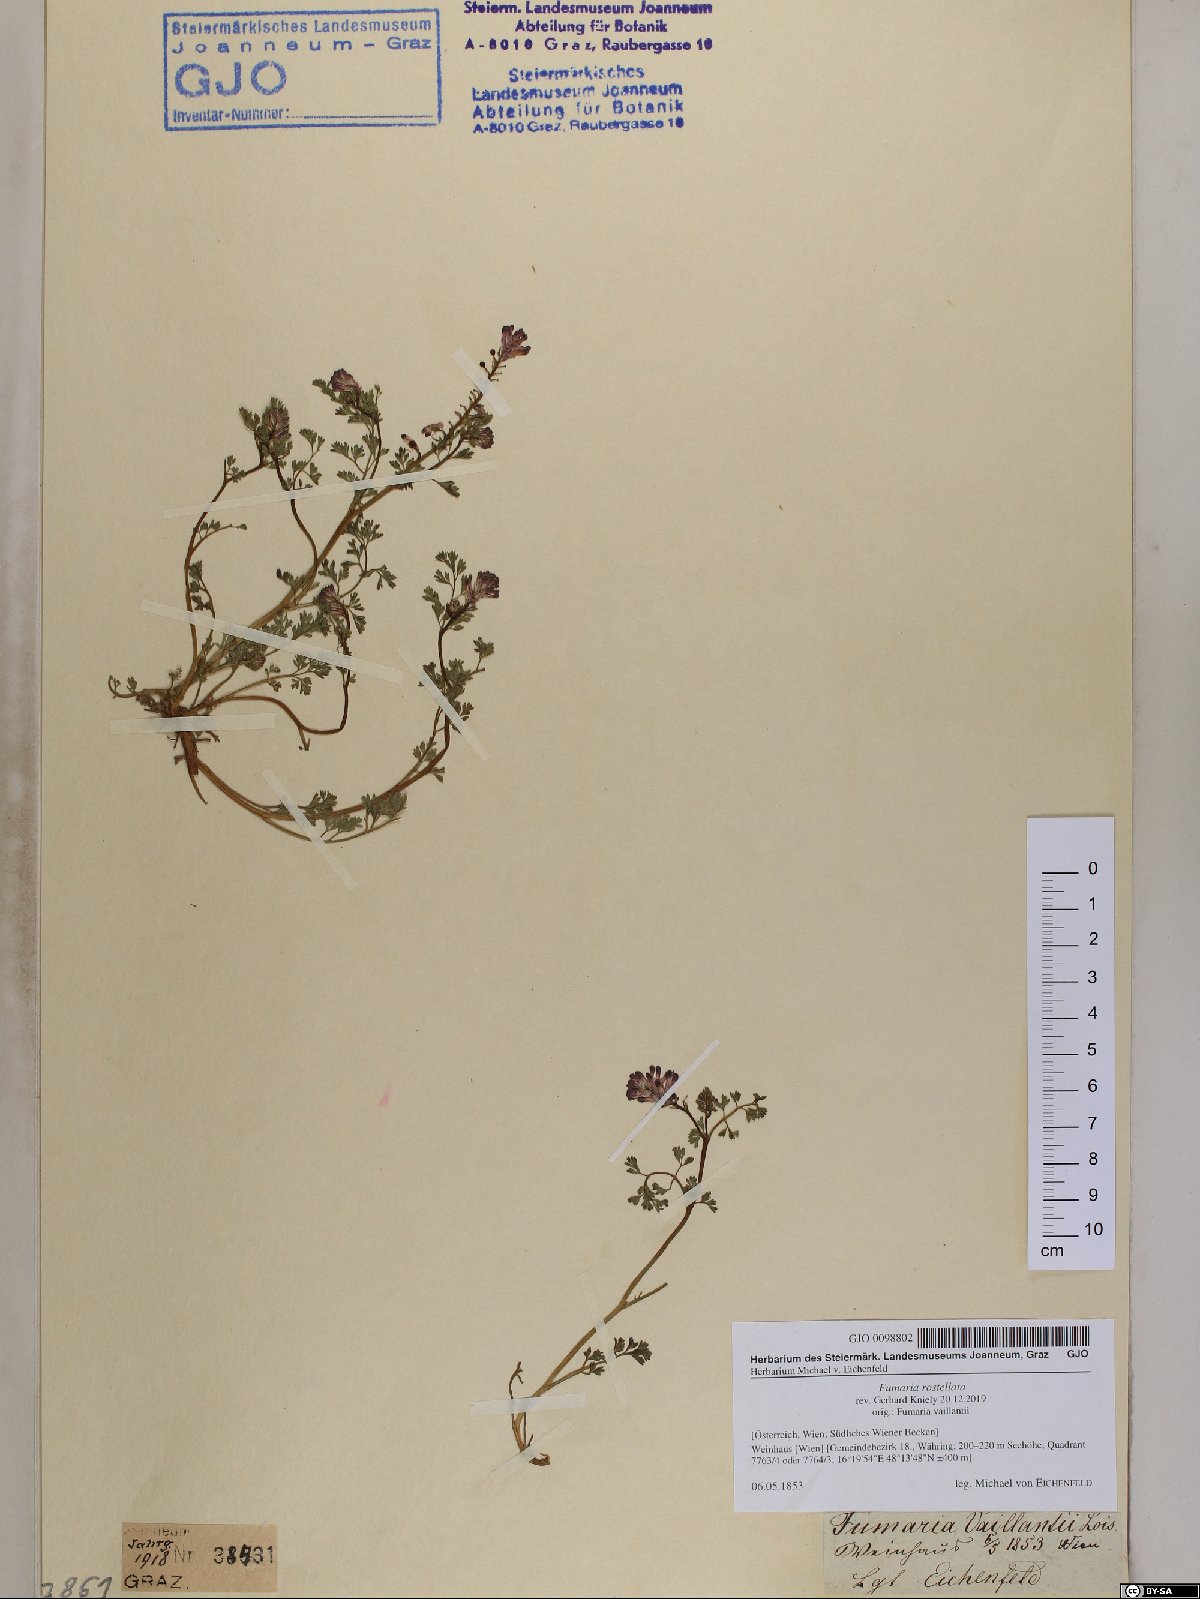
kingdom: Plantae
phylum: Tracheophyta
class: Magnoliopsida
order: Ranunculales
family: Papaveraceae
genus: Fumaria
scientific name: Fumaria rostellata
